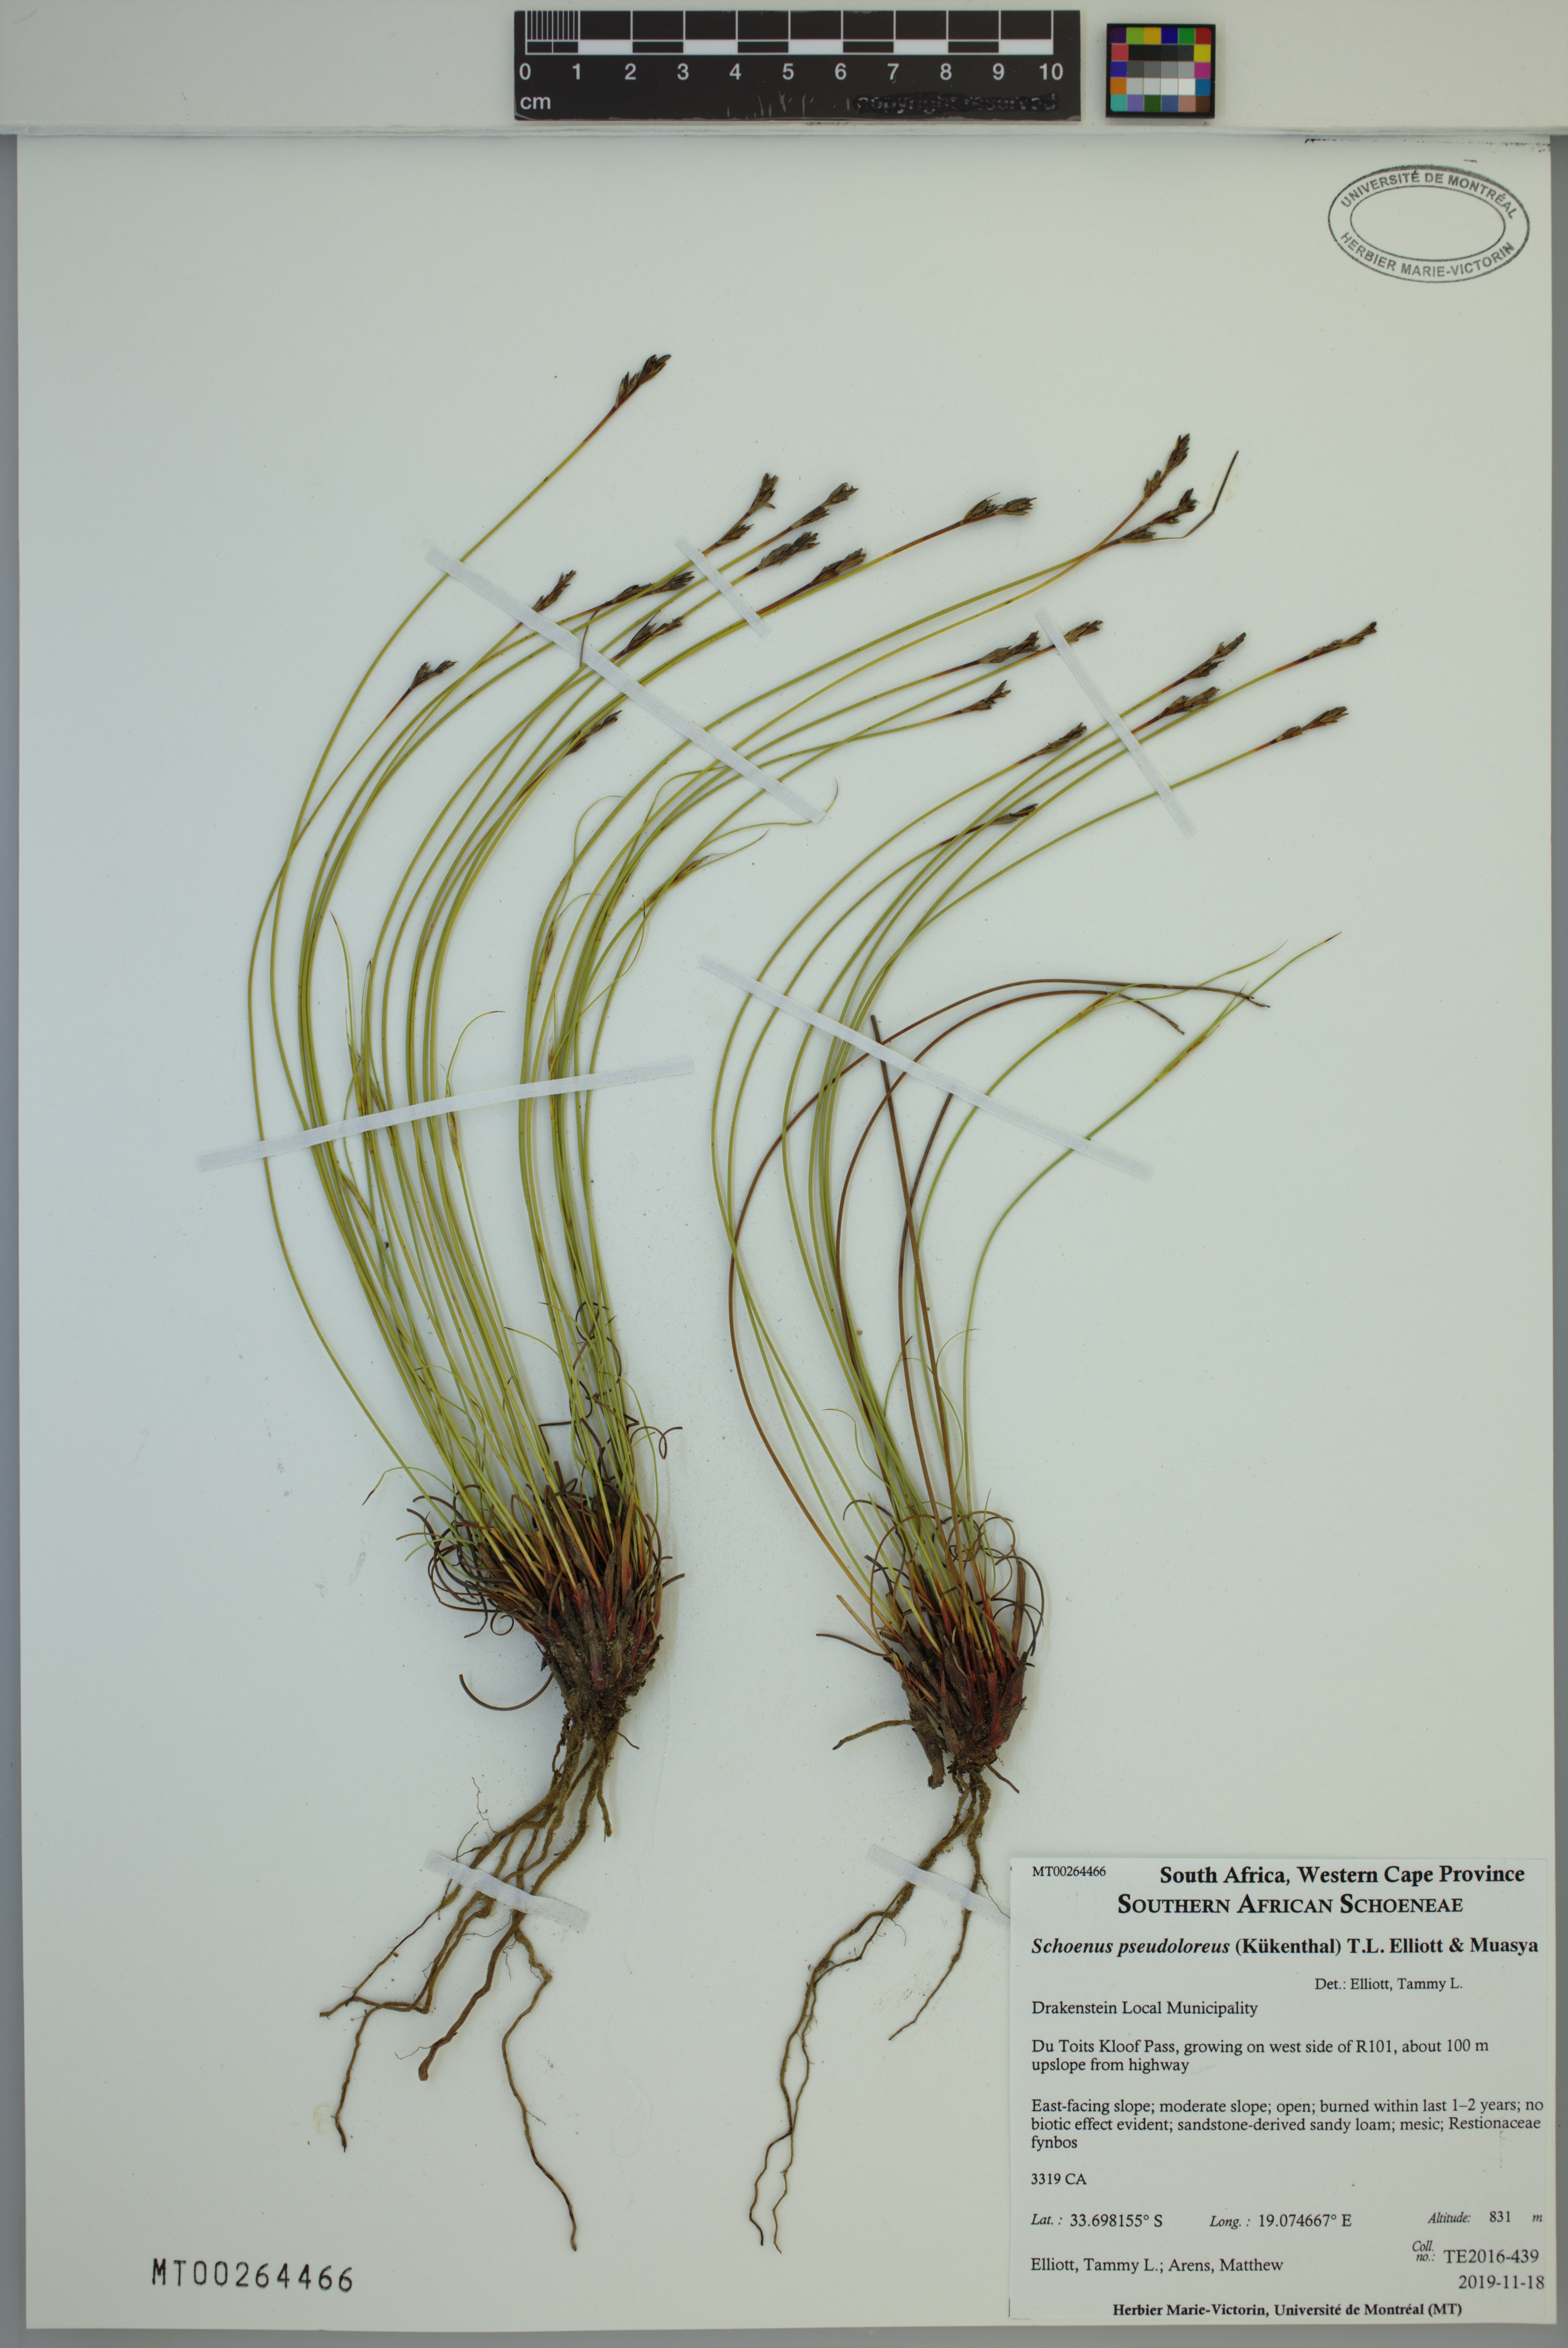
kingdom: Plantae
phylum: Tracheophyta
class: Liliopsida
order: Poales
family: Cyperaceae
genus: Schoenus
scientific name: Schoenus pseudoloreus
